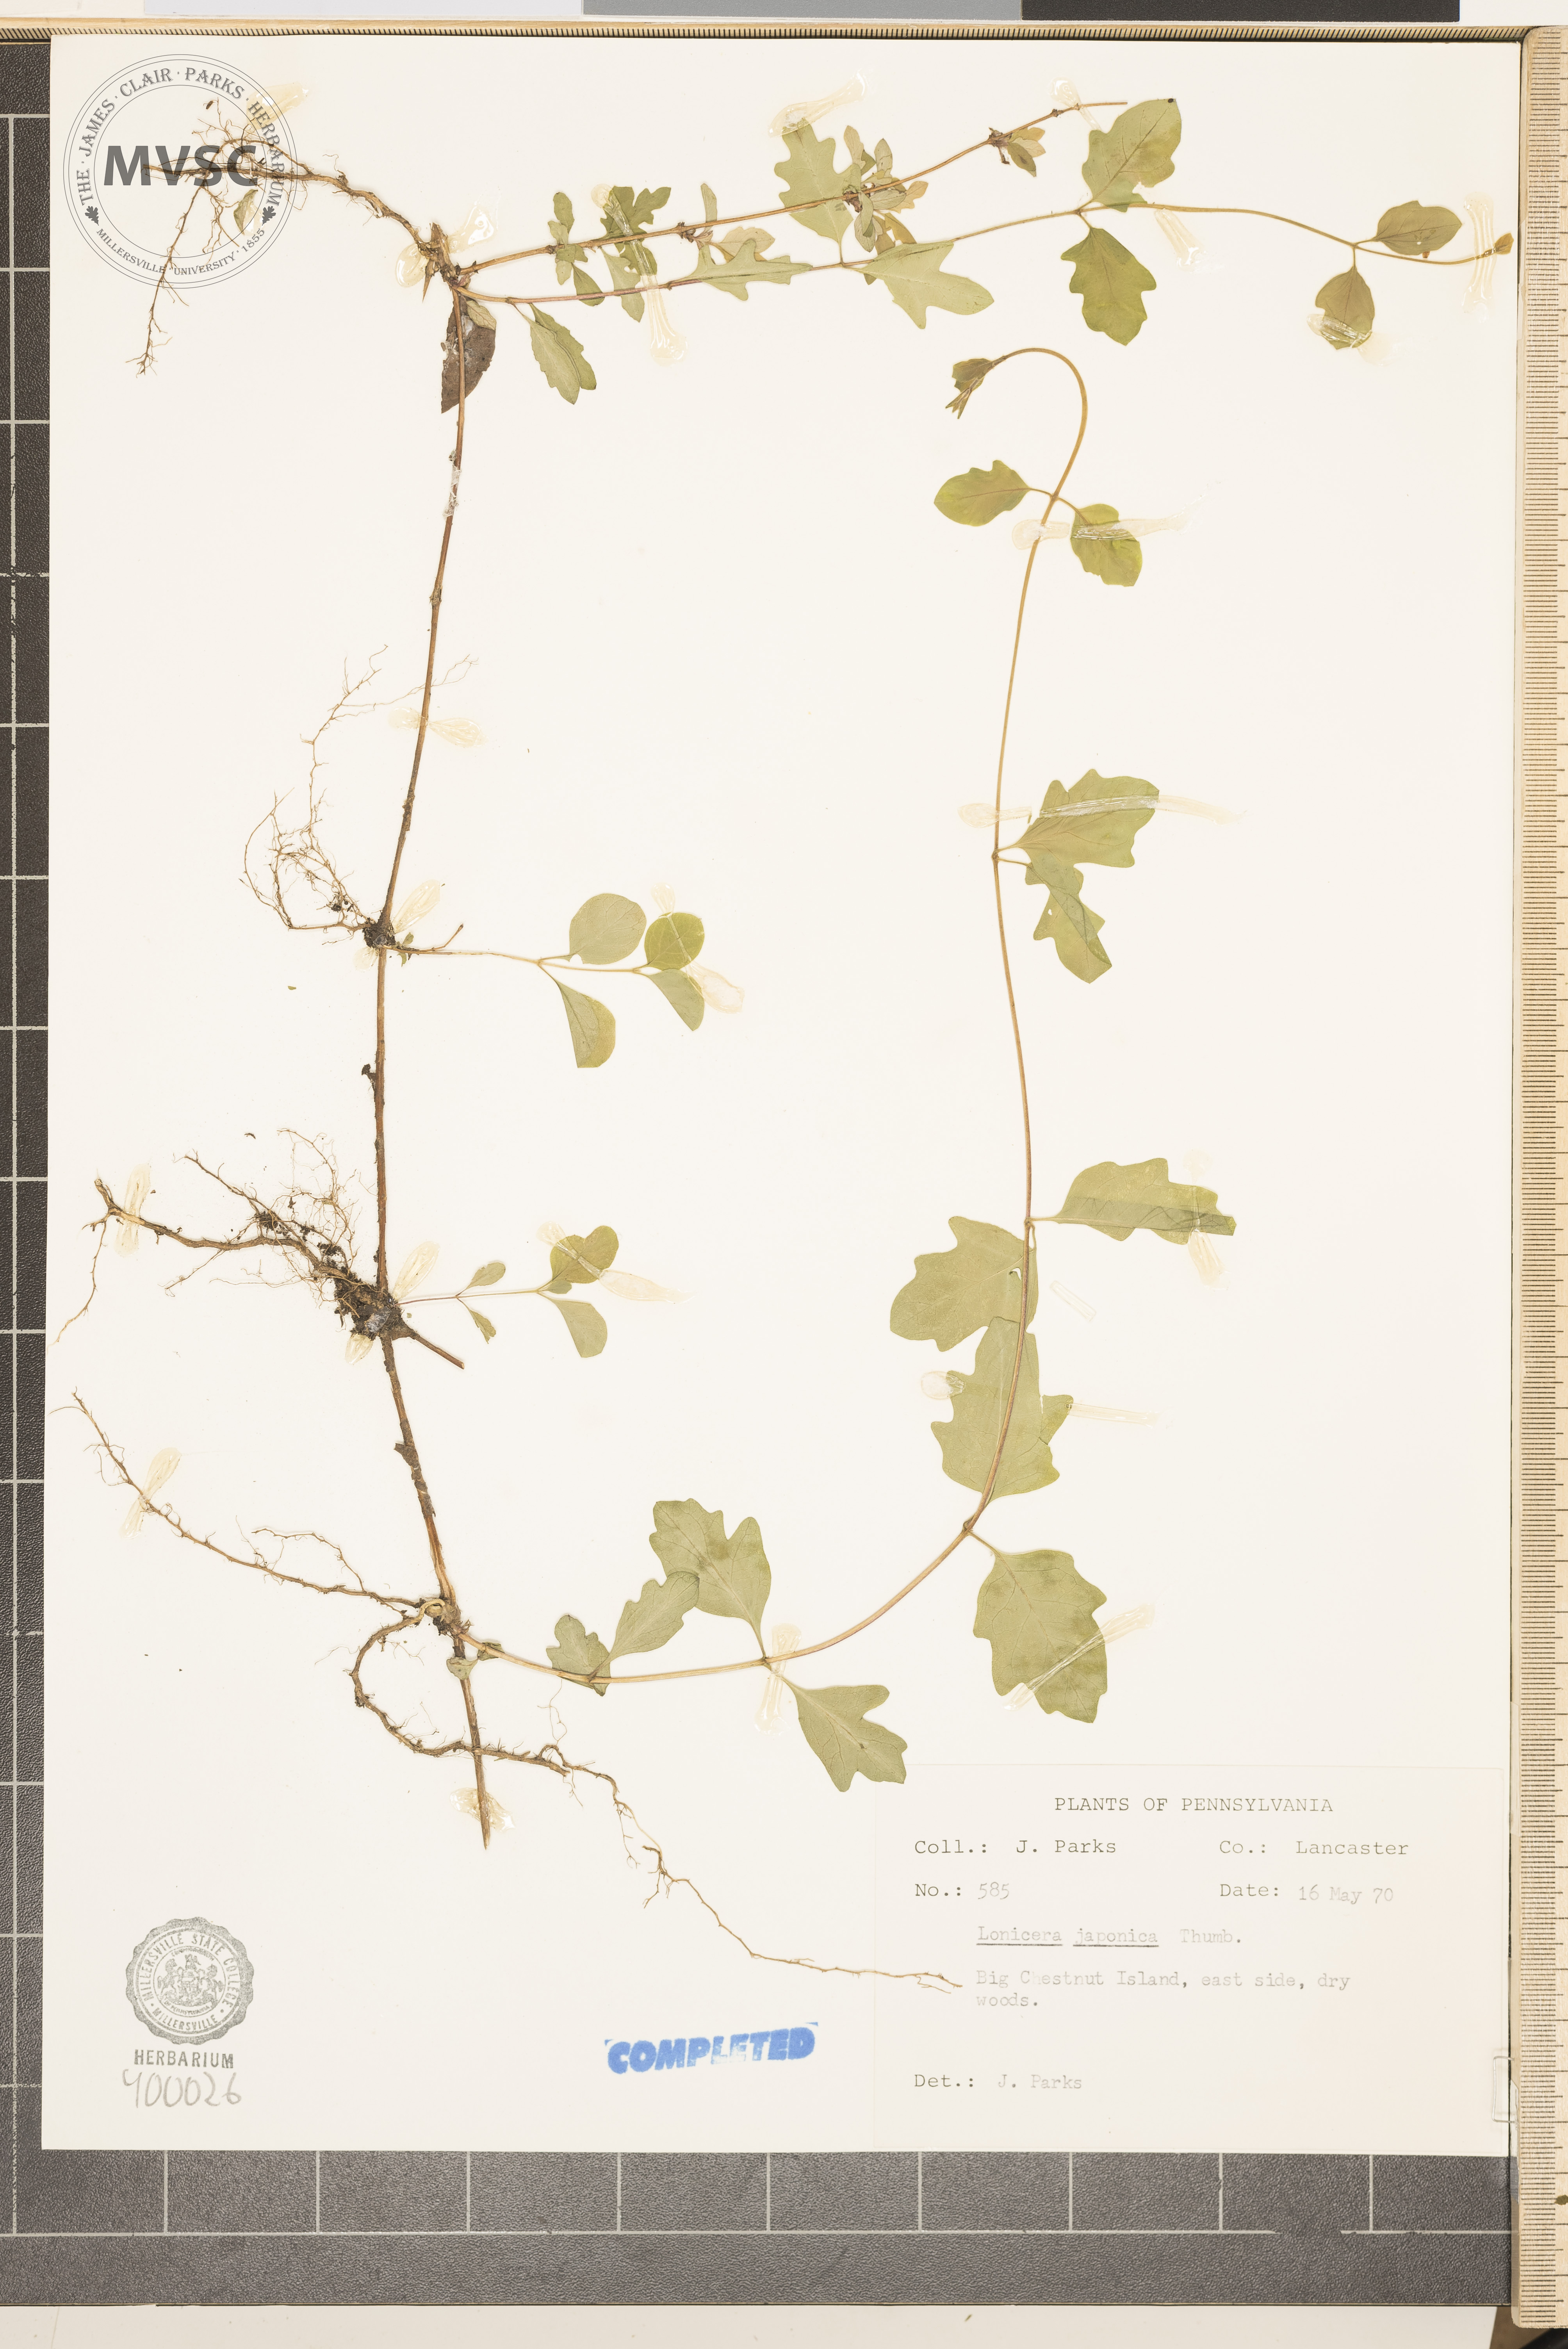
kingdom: Plantae
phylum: Tracheophyta
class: Magnoliopsida
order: Dipsacales
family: Caprifoliaceae
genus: Lonicera
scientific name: Lonicera japonica
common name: Japanese honeysuckle
